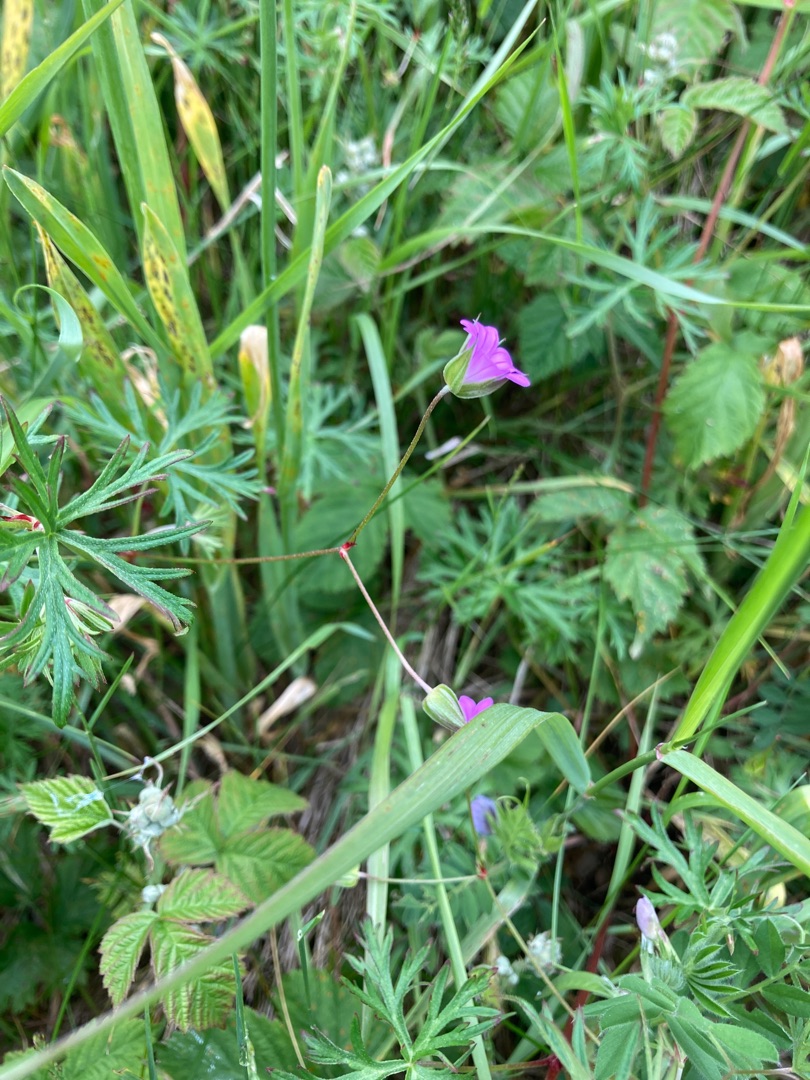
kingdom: Plantae
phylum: Tracheophyta
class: Magnoliopsida
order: Geraniales
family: Geraniaceae
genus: Geranium
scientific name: Geranium columbinum
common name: Storbægret storkenæb
